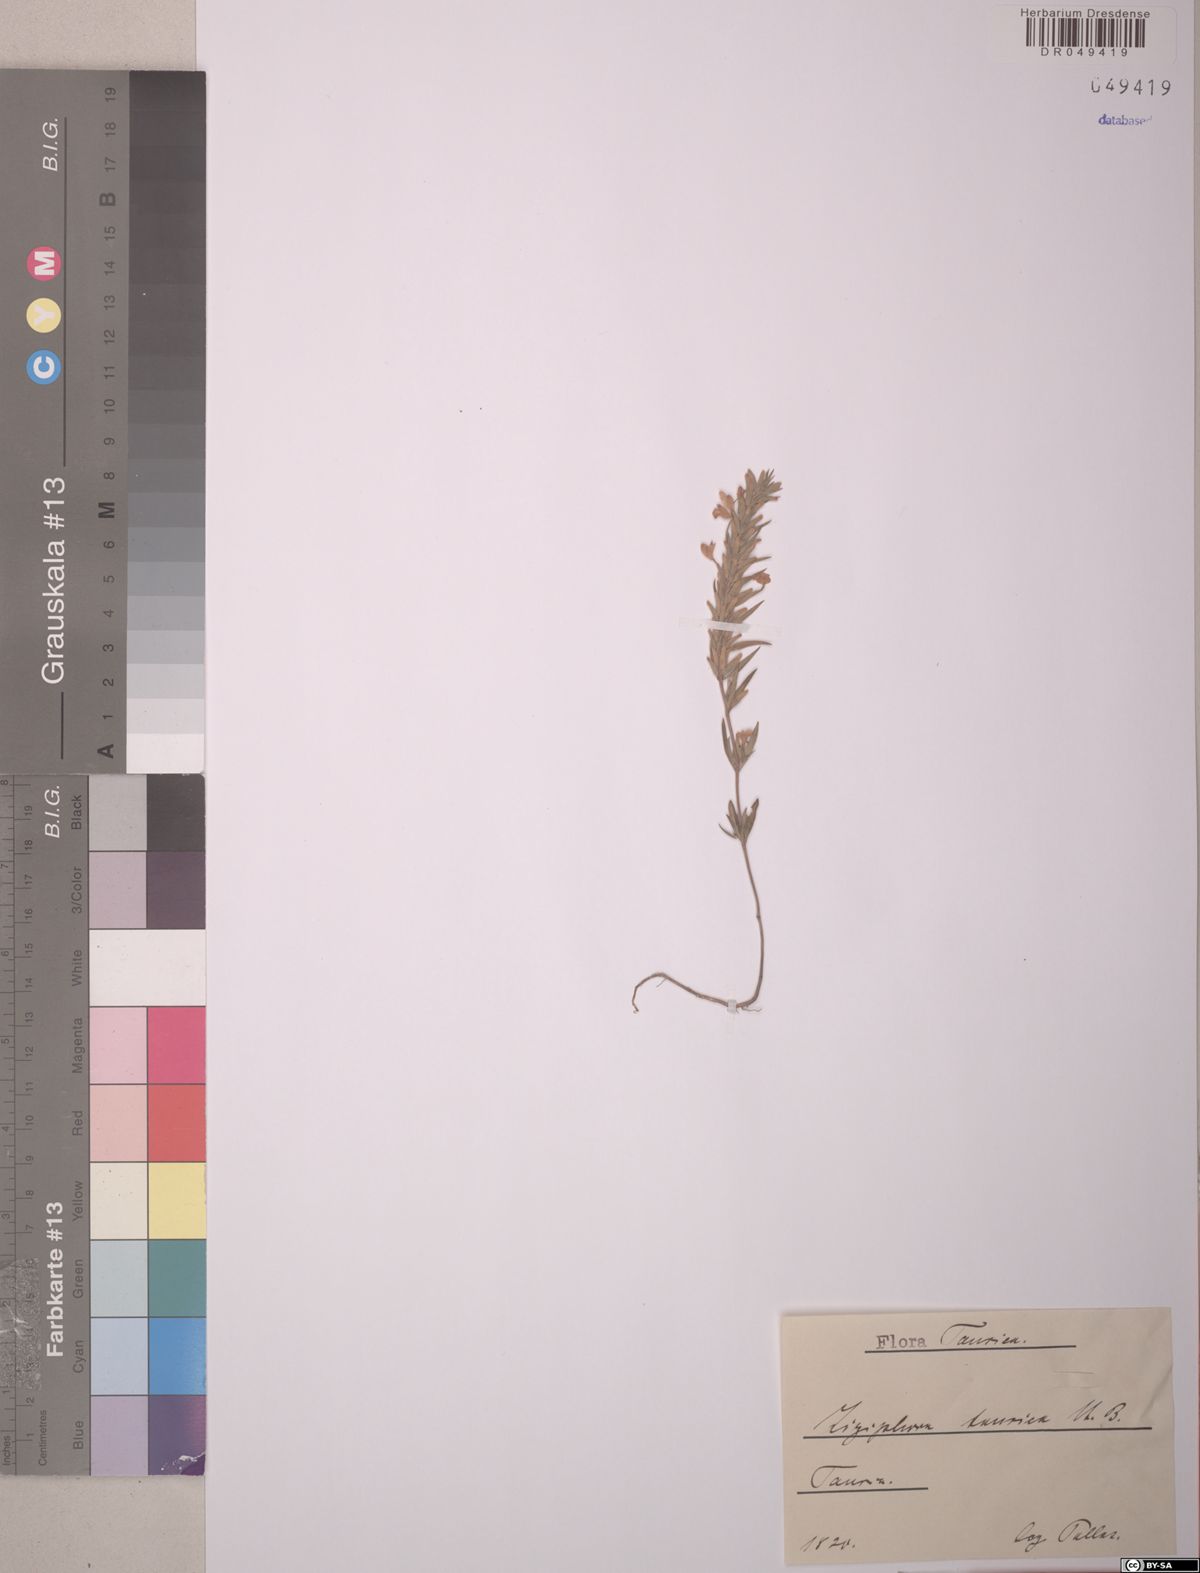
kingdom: Plantae
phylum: Tracheophyta
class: Magnoliopsida
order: Lamiales
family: Lamiaceae
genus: Ziziphora
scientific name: Ziziphora taurica
